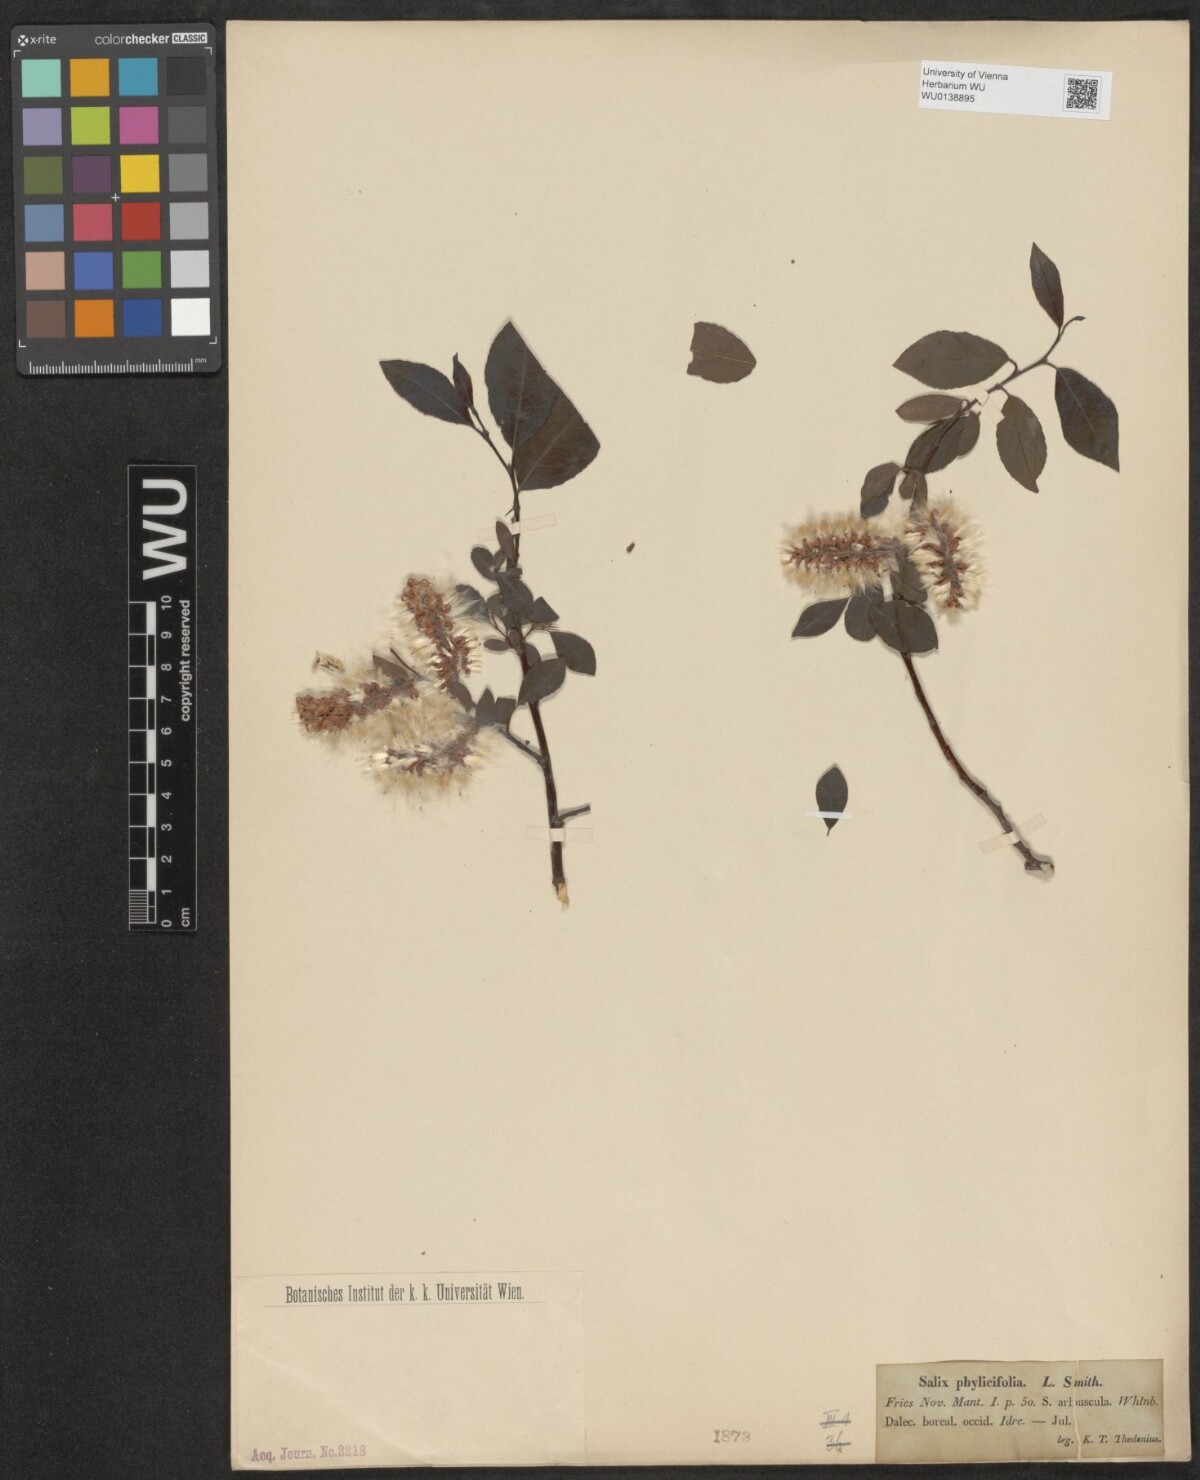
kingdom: Plantae
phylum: Tracheophyta
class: Magnoliopsida
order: Malpighiales
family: Salicaceae
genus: Salix
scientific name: Salix phylicifolia
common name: Tea-leaved willow
